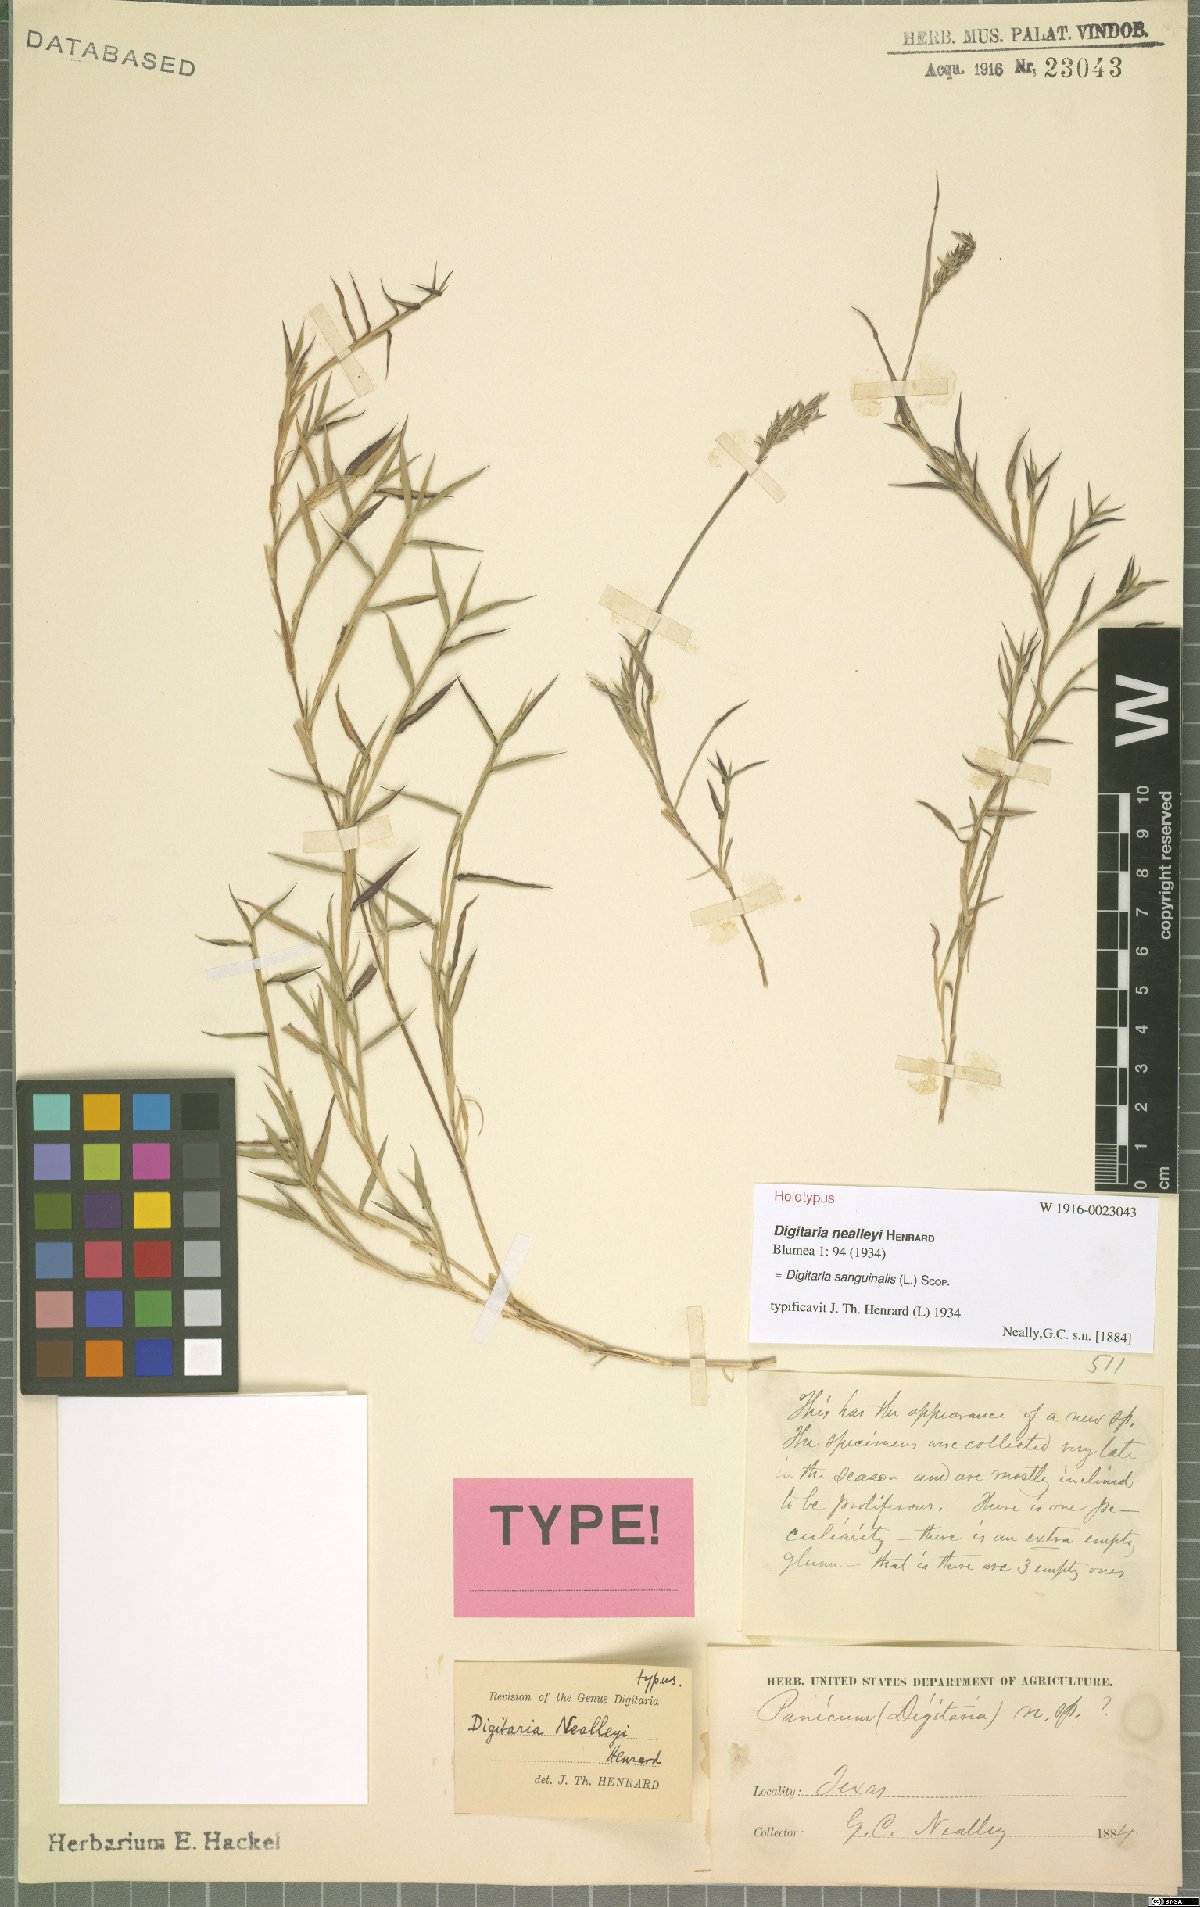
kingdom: Plantae
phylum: Tracheophyta
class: Liliopsida
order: Poales
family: Poaceae
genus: Digitaria
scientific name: Digitaria sanguinalis
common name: Hairy crabgrass
